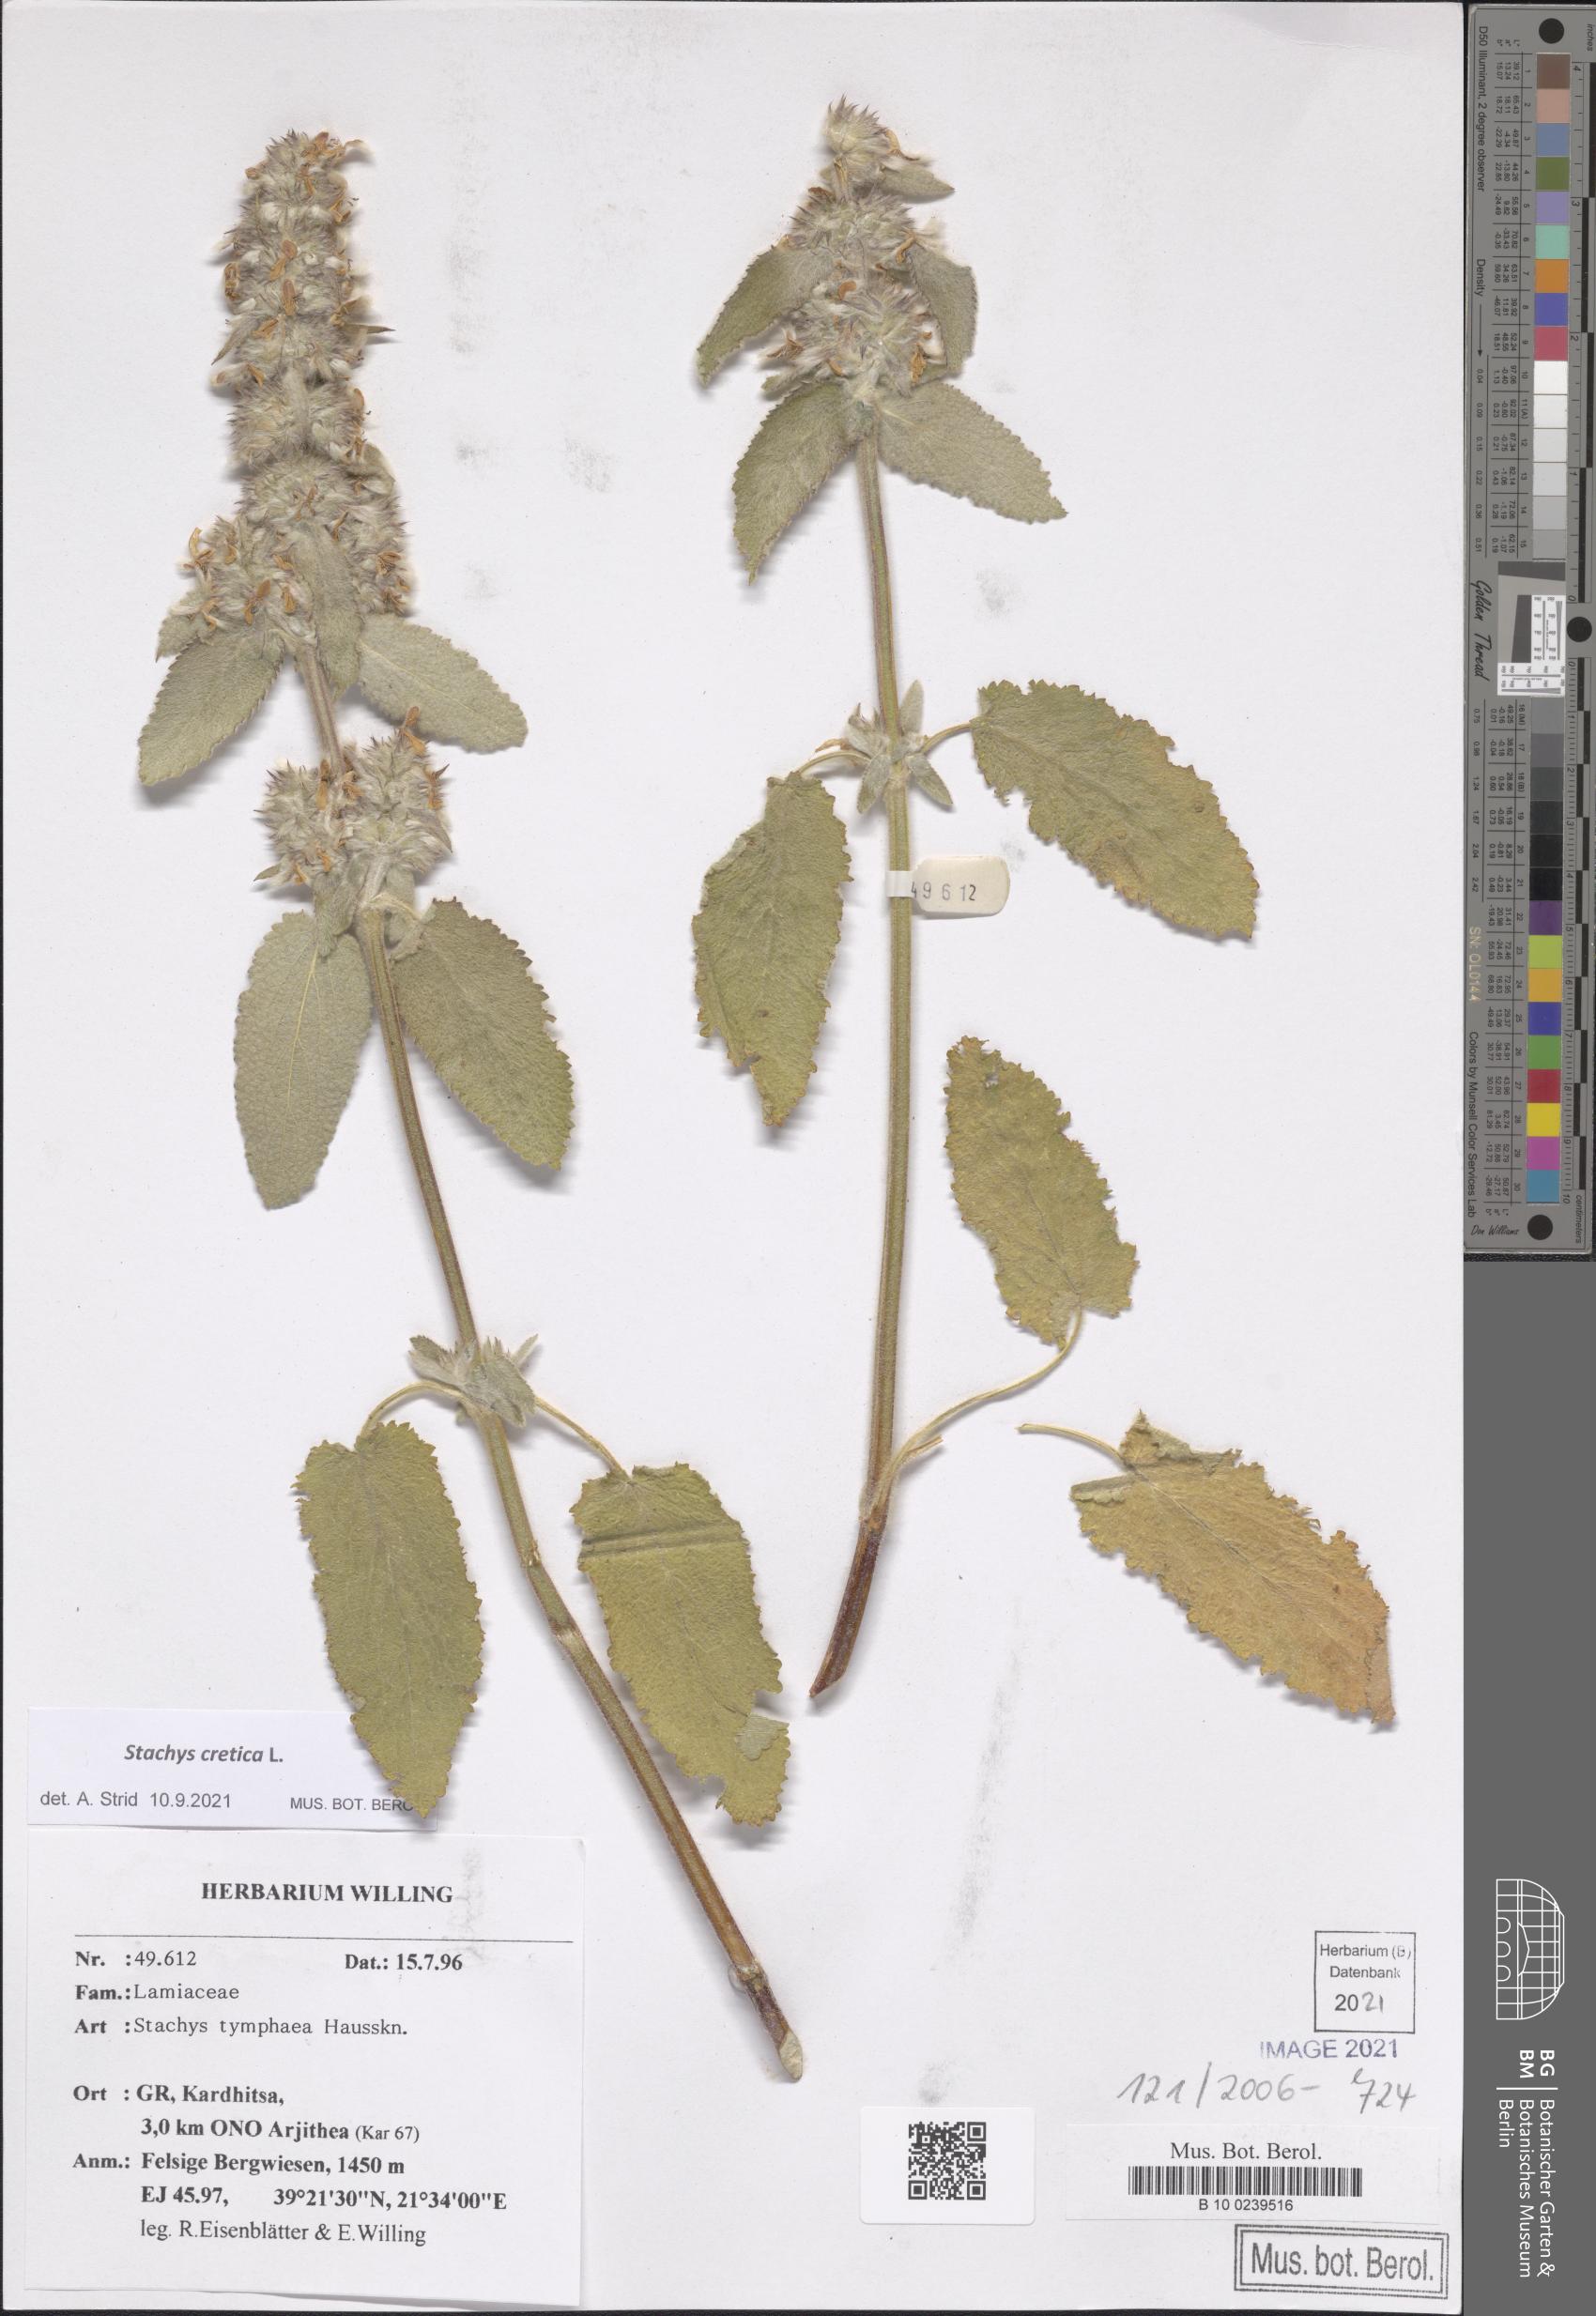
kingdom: Plantae
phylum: Tracheophyta
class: Magnoliopsida
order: Lamiales
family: Lamiaceae
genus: Stachys
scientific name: Stachys cretica
